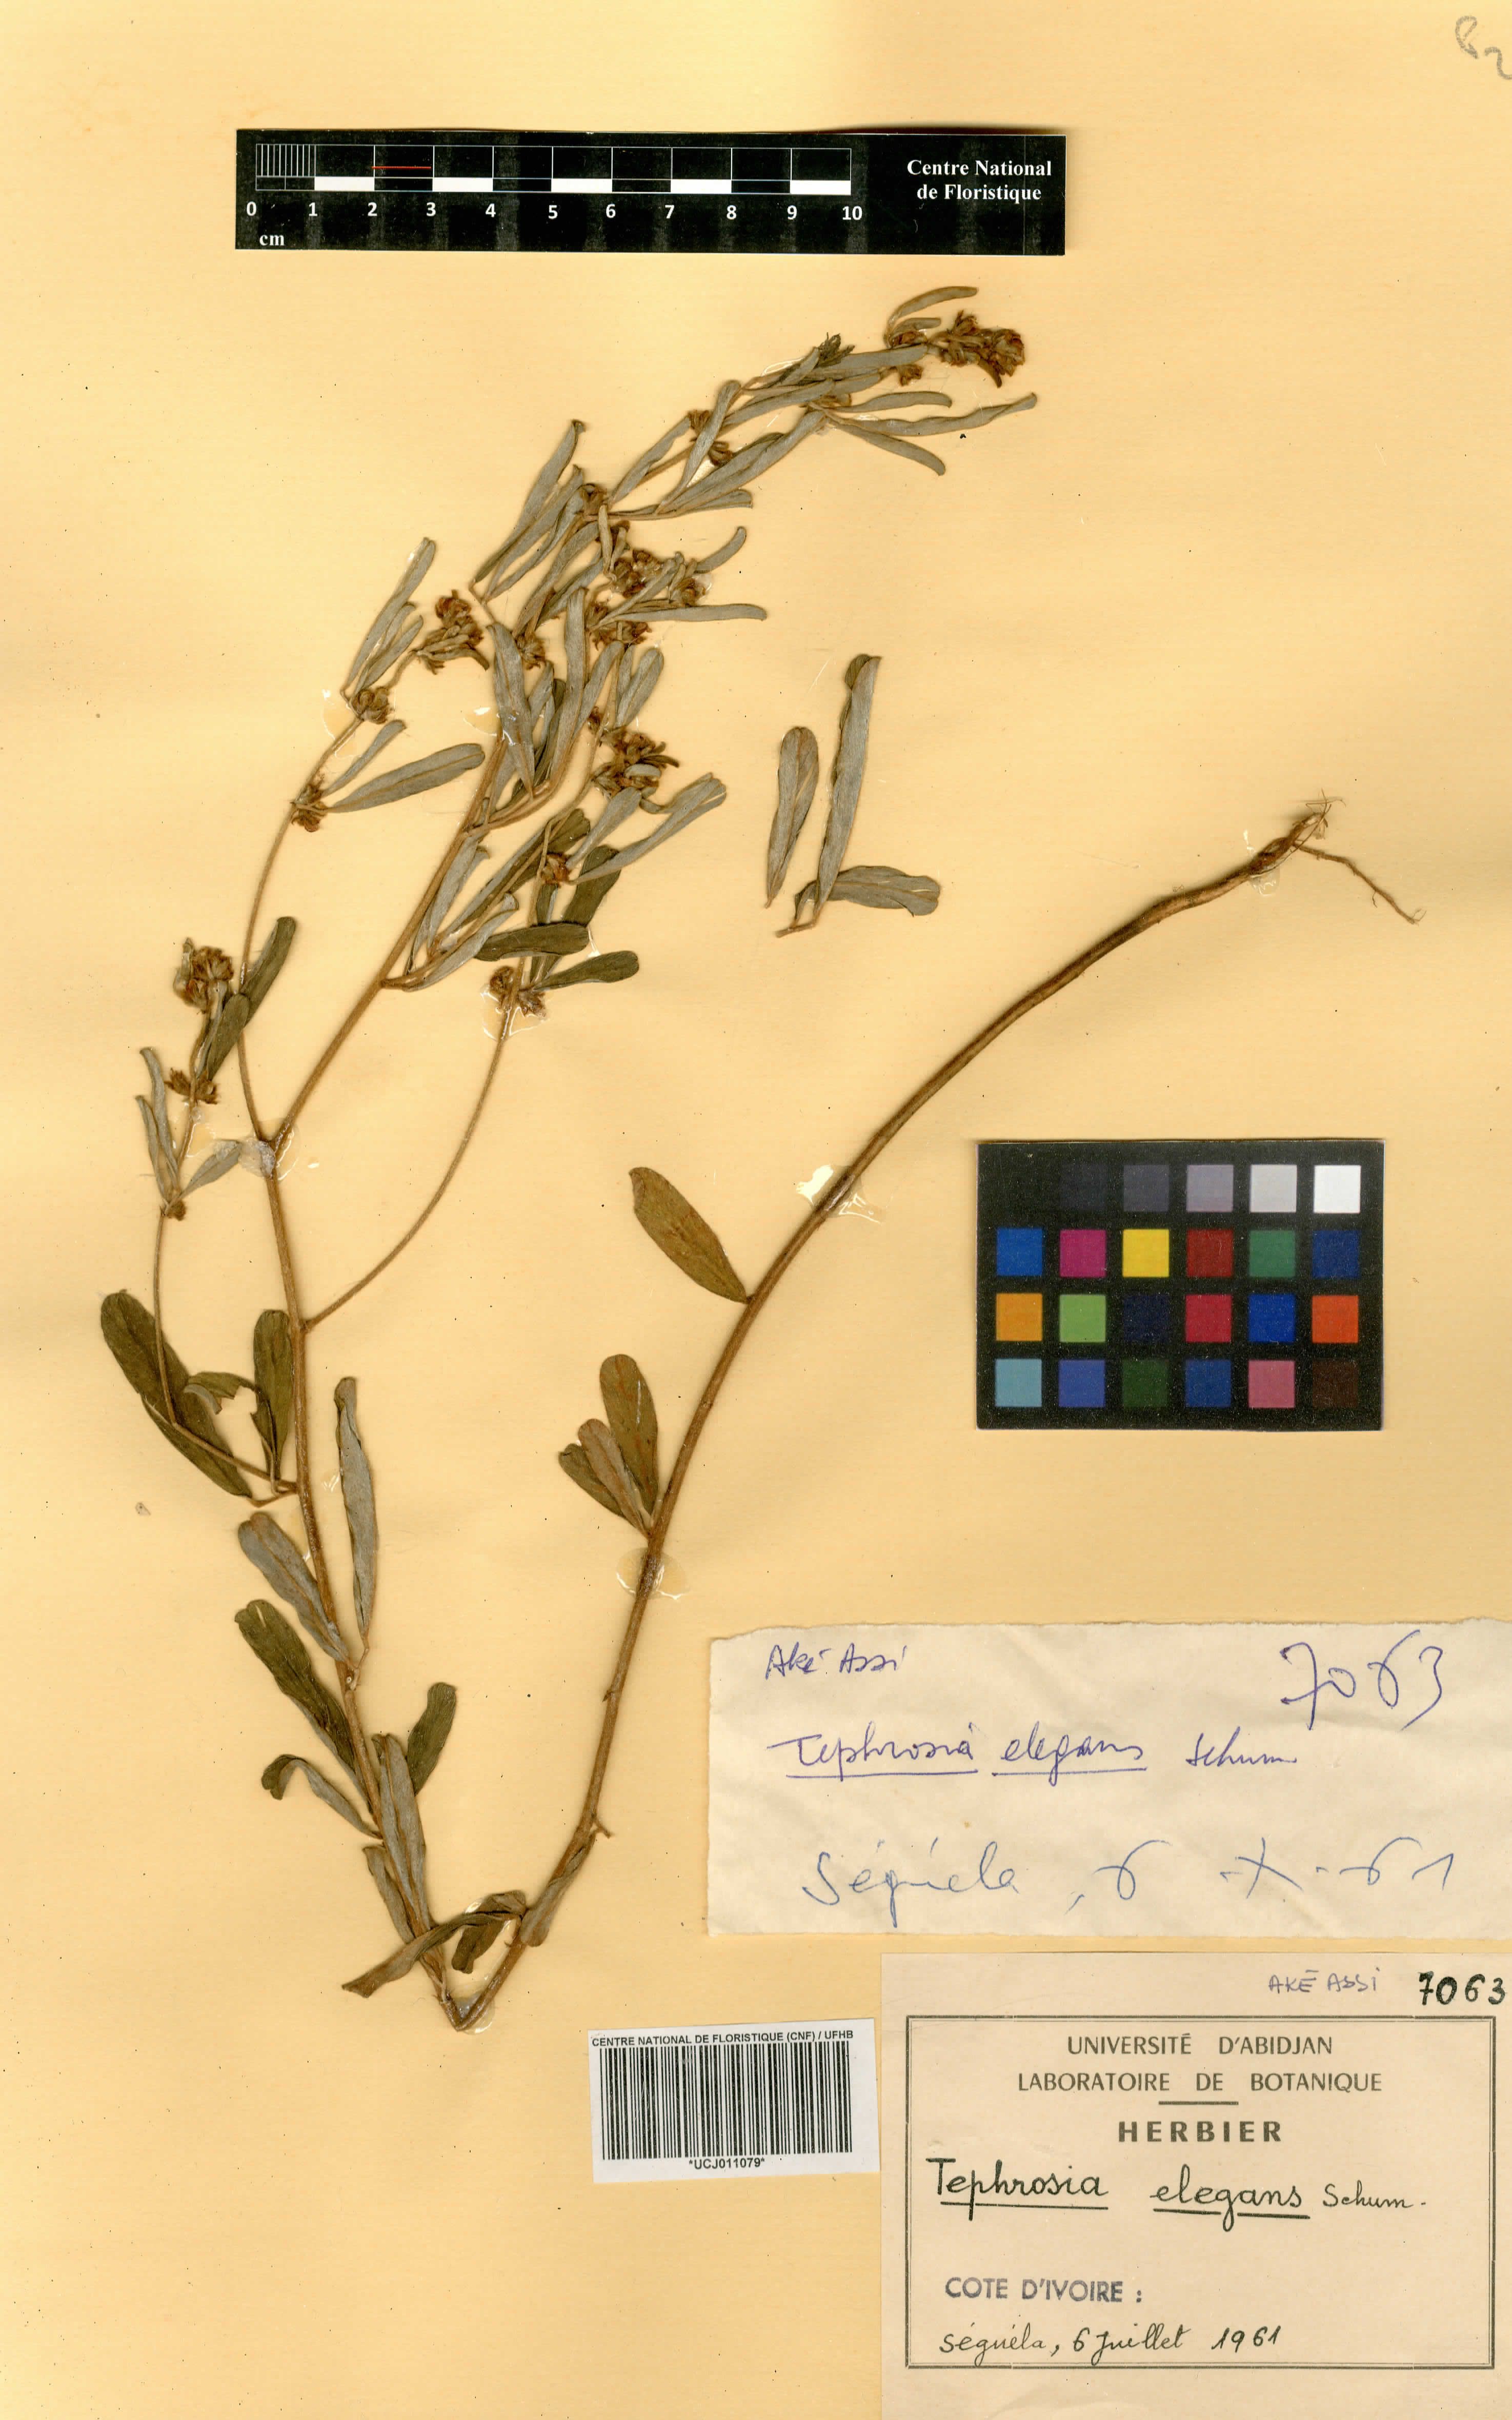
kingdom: Plantae
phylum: Tracheophyta
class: Magnoliopsida
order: Fabales
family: Fabaceae
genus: Tephrosia
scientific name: Tephrosia elegans
